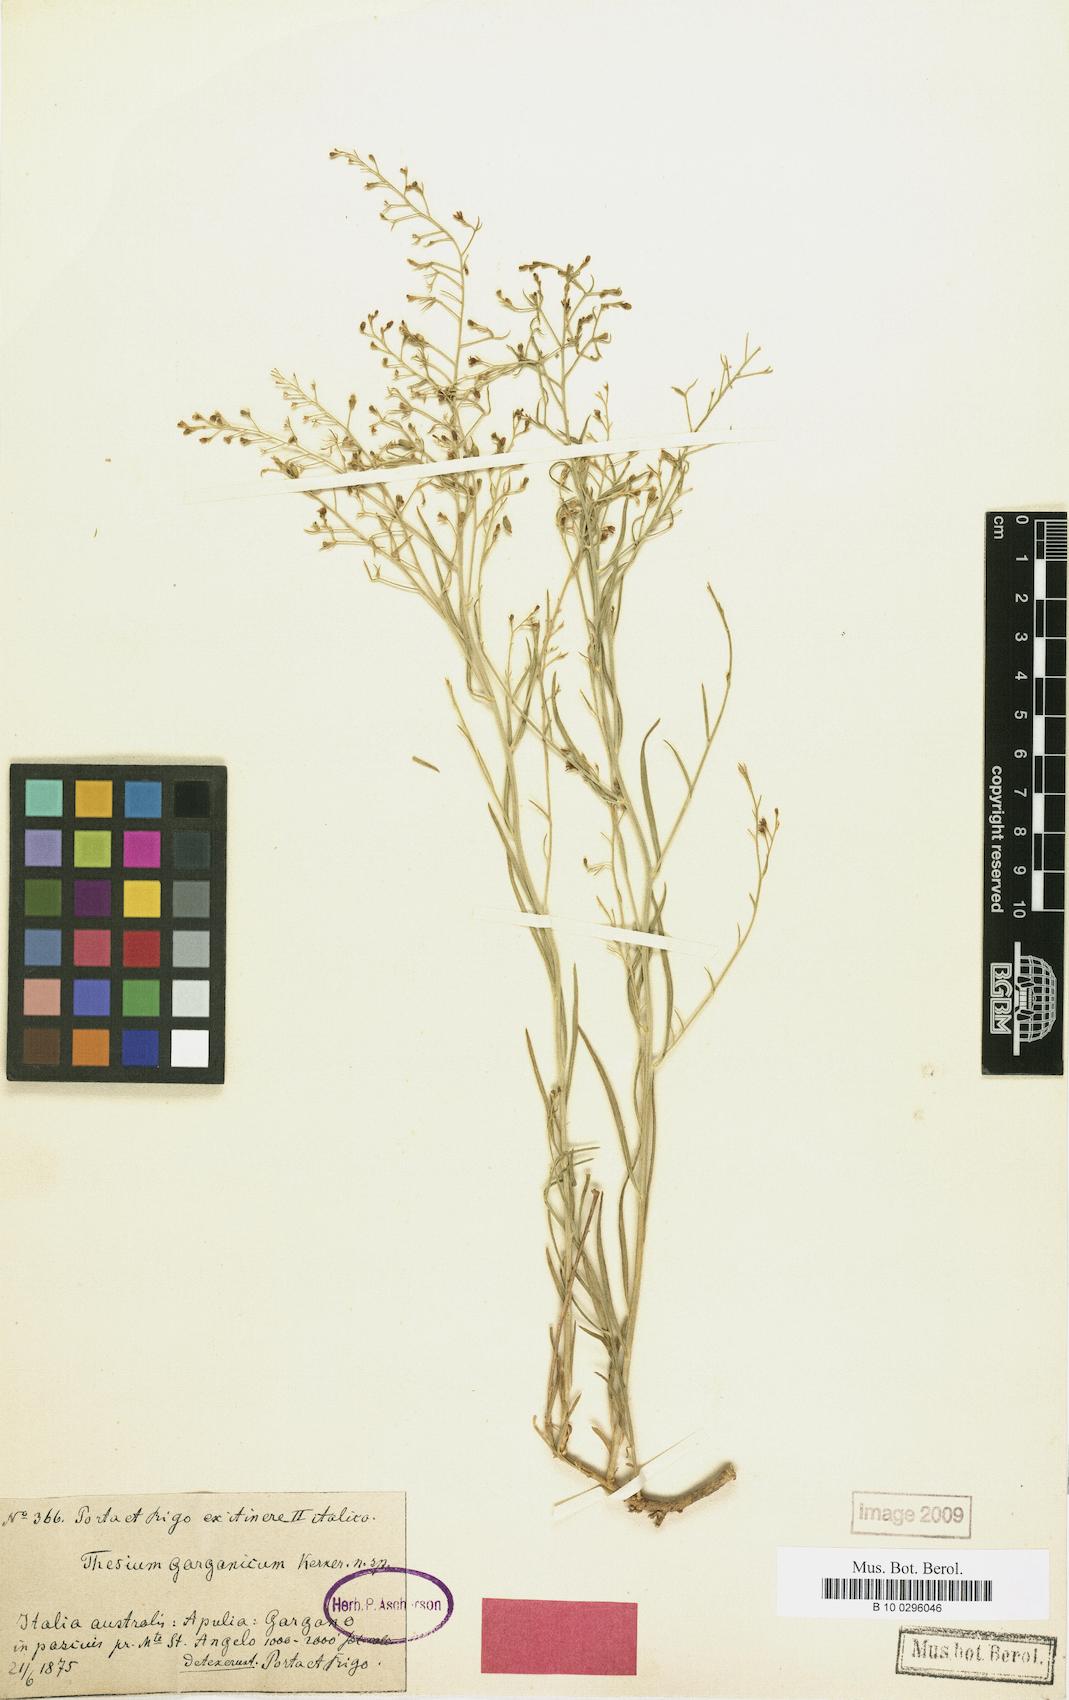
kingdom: Plantae
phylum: Tracheophyta
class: Magnoliopsida
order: Santalales
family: Thesiaceae
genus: Thesium
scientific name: Thesium divaricatum
